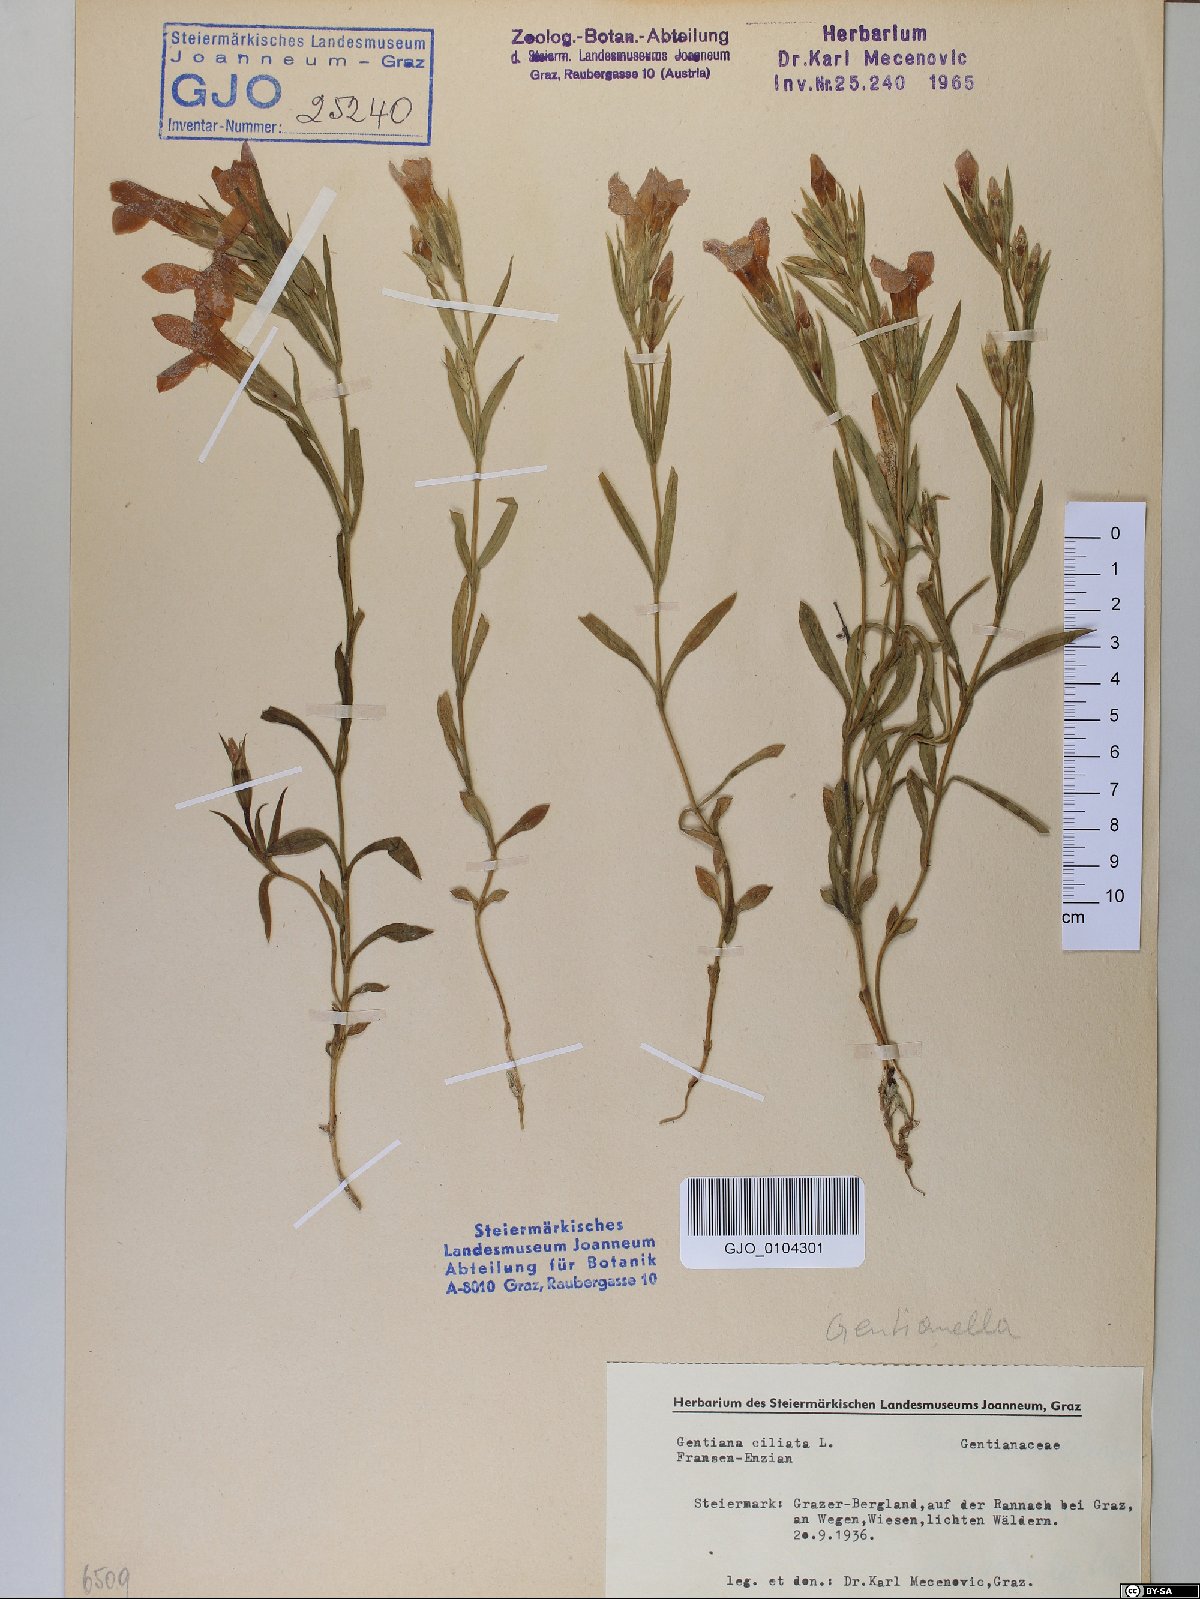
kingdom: Plantae
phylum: Tracheophyta
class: Magnoliopsida
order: Gentianales
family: Gentianaceae
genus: Gentianopsis
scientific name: Gentianopsis ciliata
